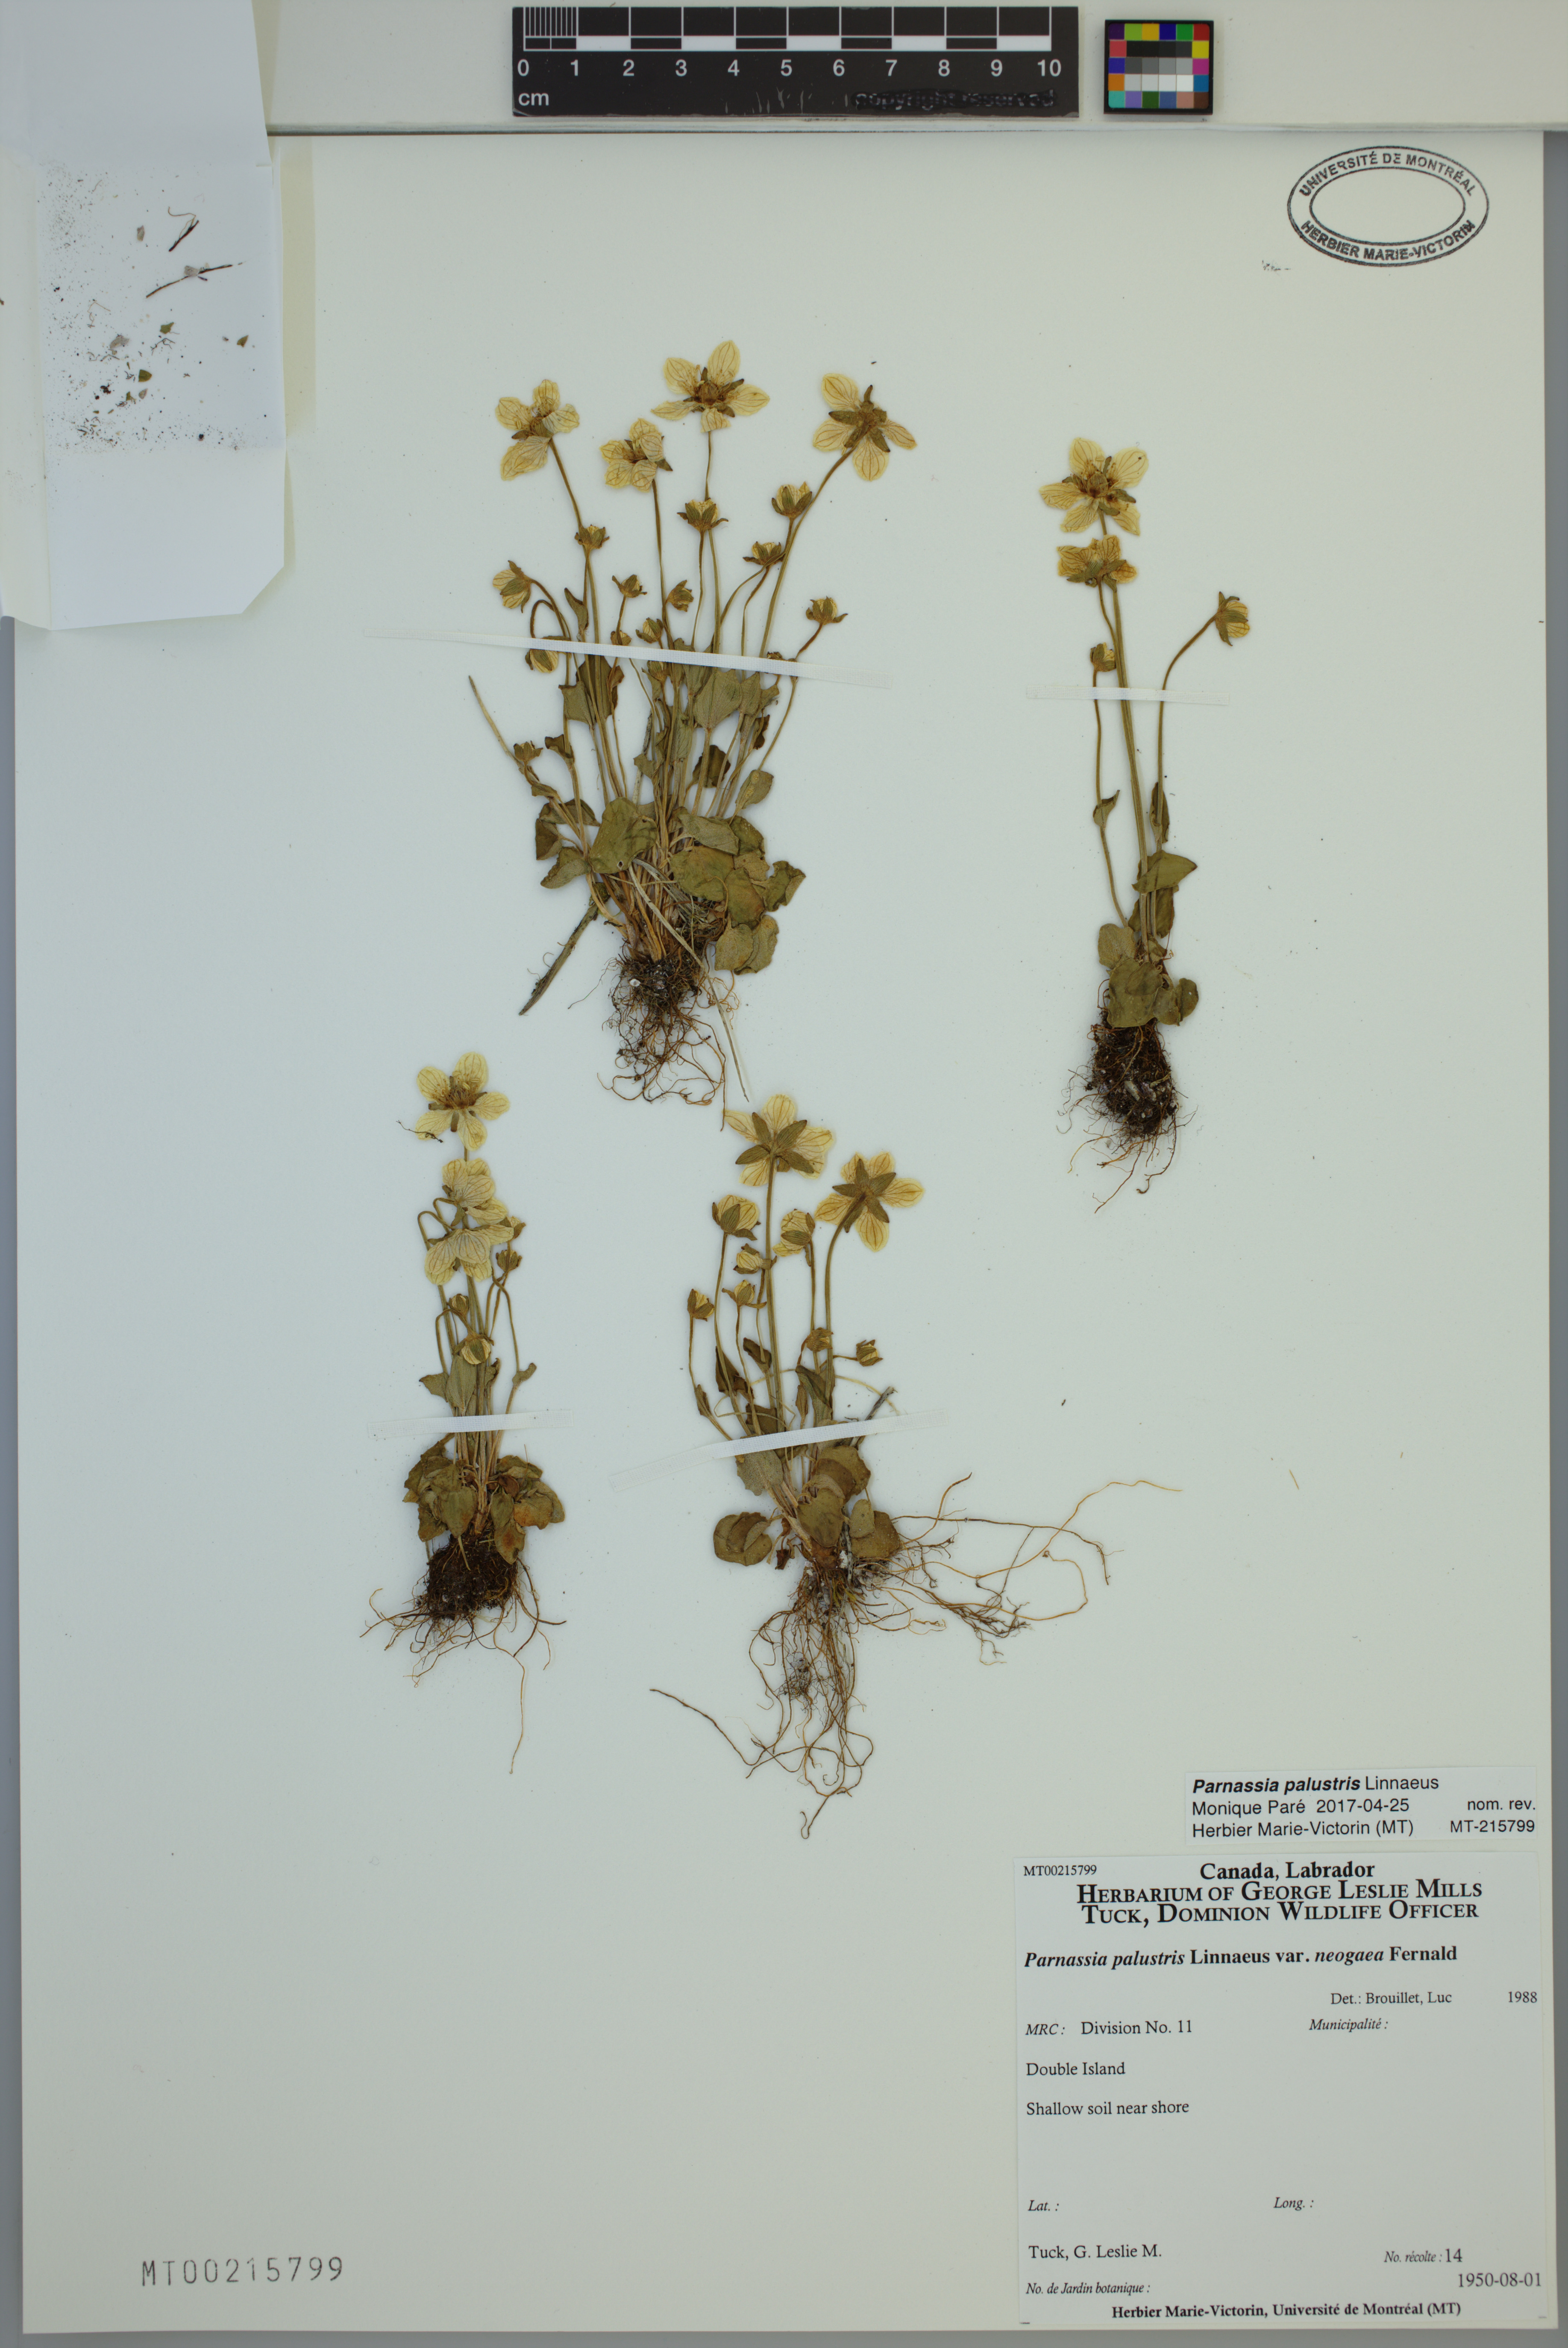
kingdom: Plantae
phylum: Tracheophyta
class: Magnoliopsida
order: Celastrales
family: Parnassiaceae
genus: Parnassia
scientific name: Parnassia palustris
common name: Grass-of-parnassus
